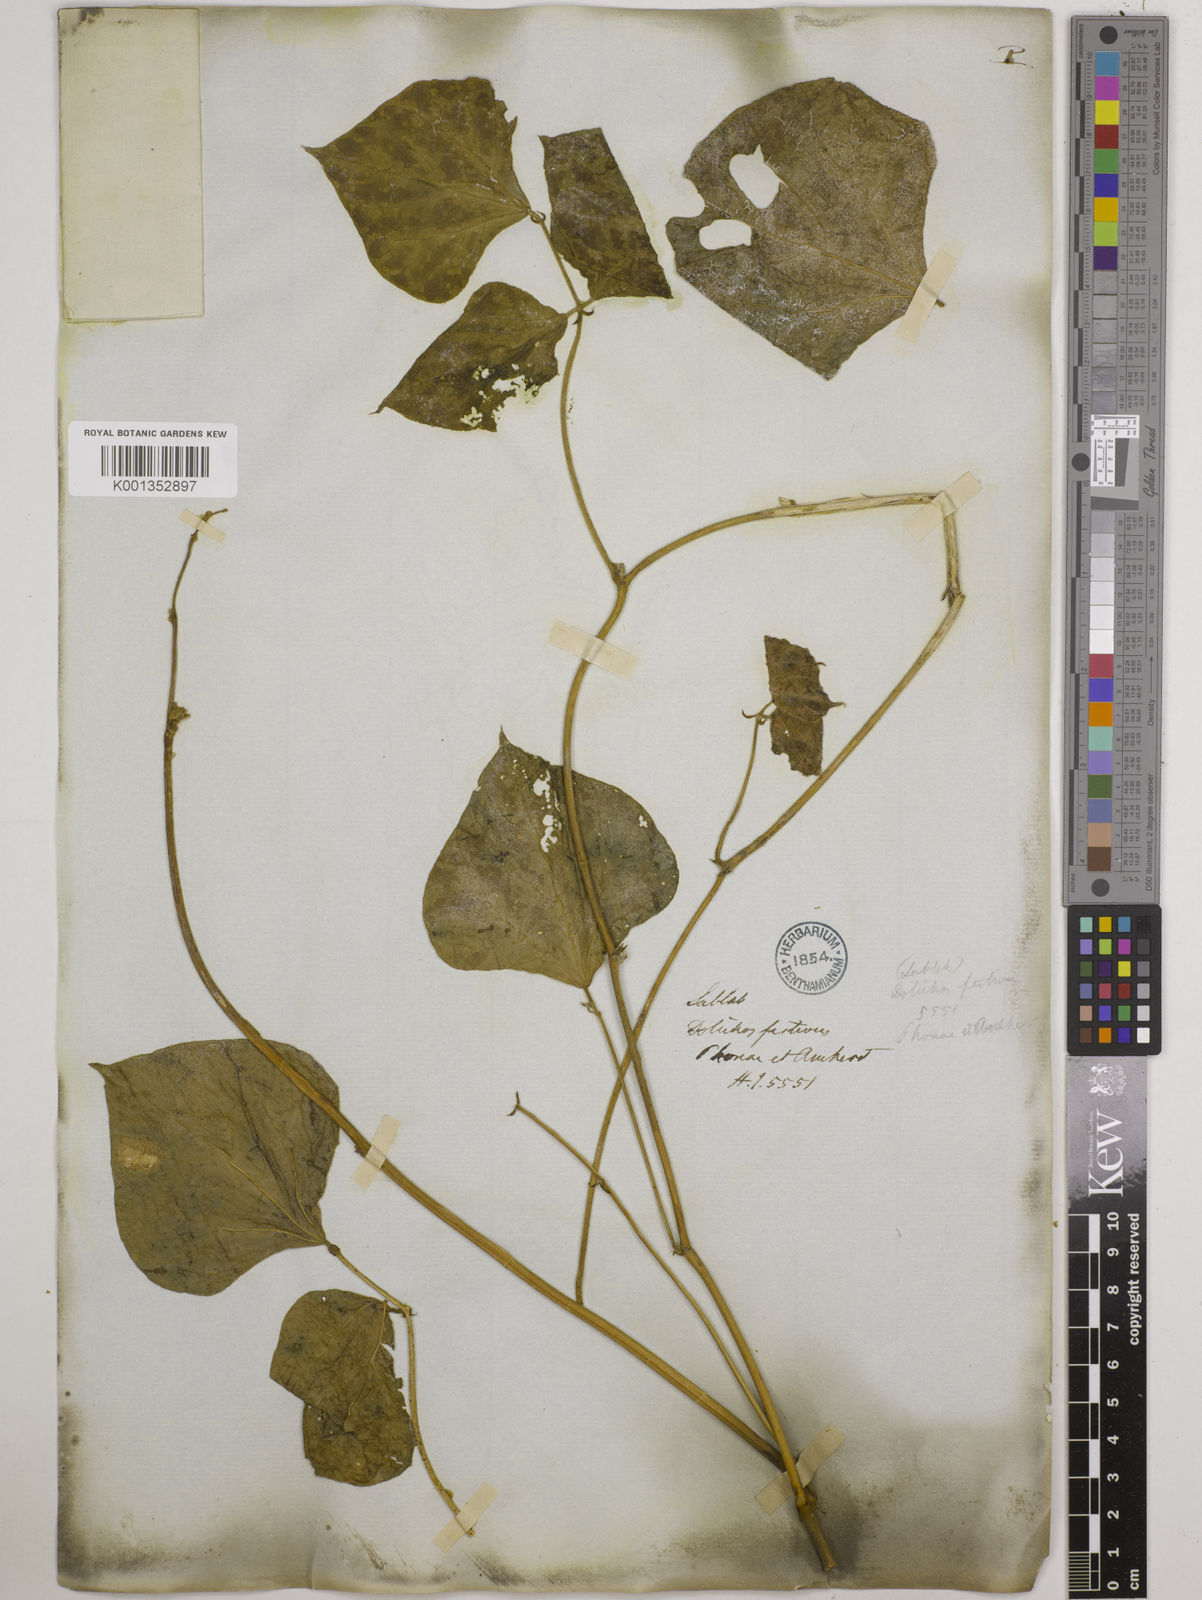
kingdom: Plantae
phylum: Tracheophyta
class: Magnoliopsida
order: Fabales
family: Fabaceae
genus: Lablab
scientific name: Lablab purpureus
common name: Lablab-bean
